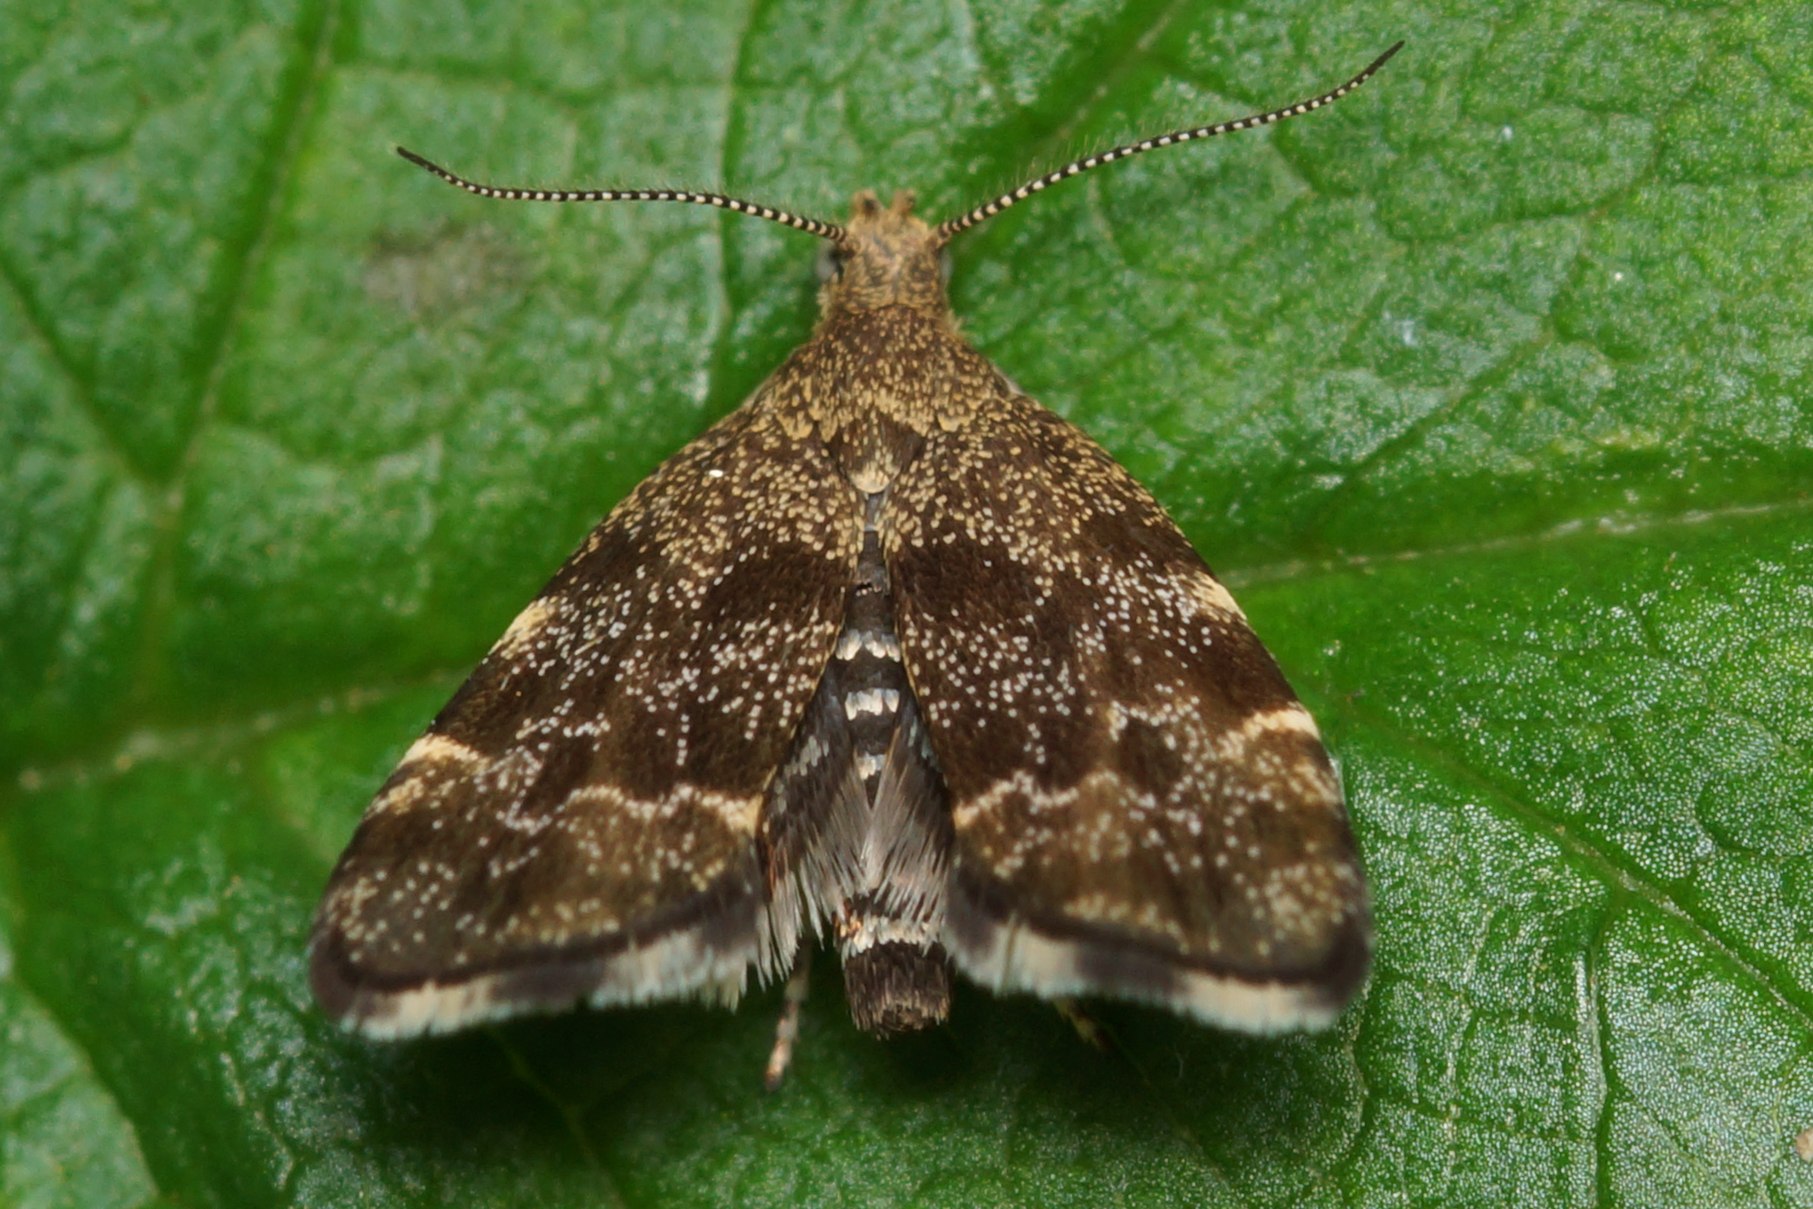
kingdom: Animalia
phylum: Arthropoda
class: Insecta
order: Lepidoptera
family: Choreutidae
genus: Anthophila
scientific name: Anthophila fabriciana
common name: Bredvinget nældevikler
